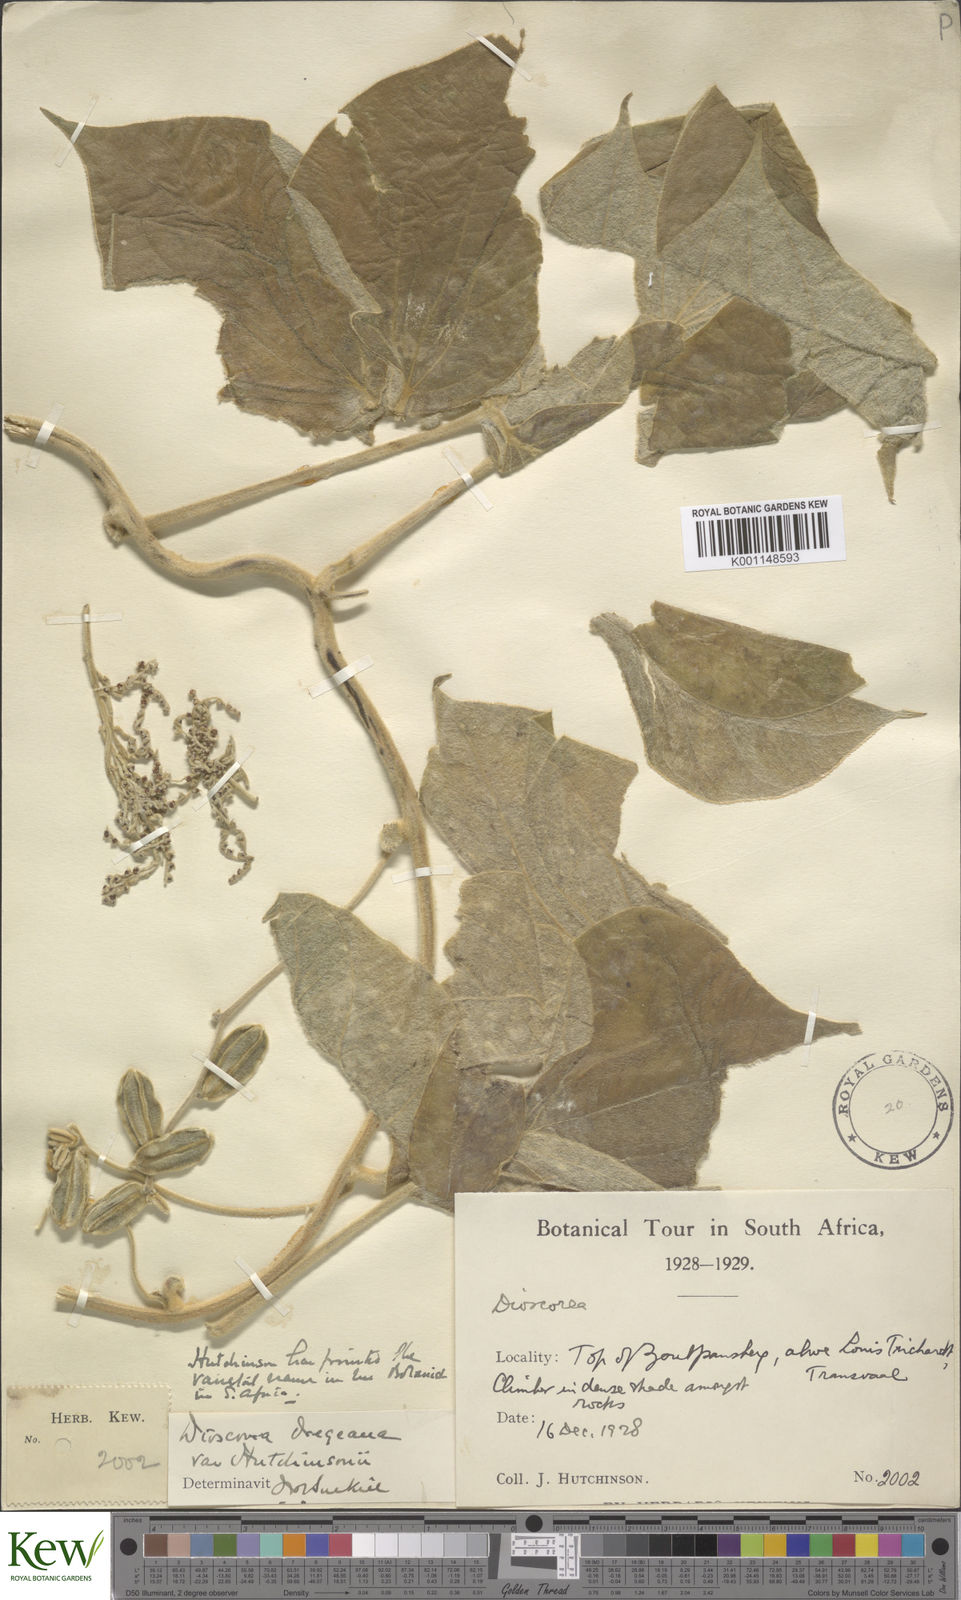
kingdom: Plantae
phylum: Tracheophyta
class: Liliopsida
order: Dioscoreales
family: Dioscoreaceae
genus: Dioscorea
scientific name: Dioscorea dregeana
